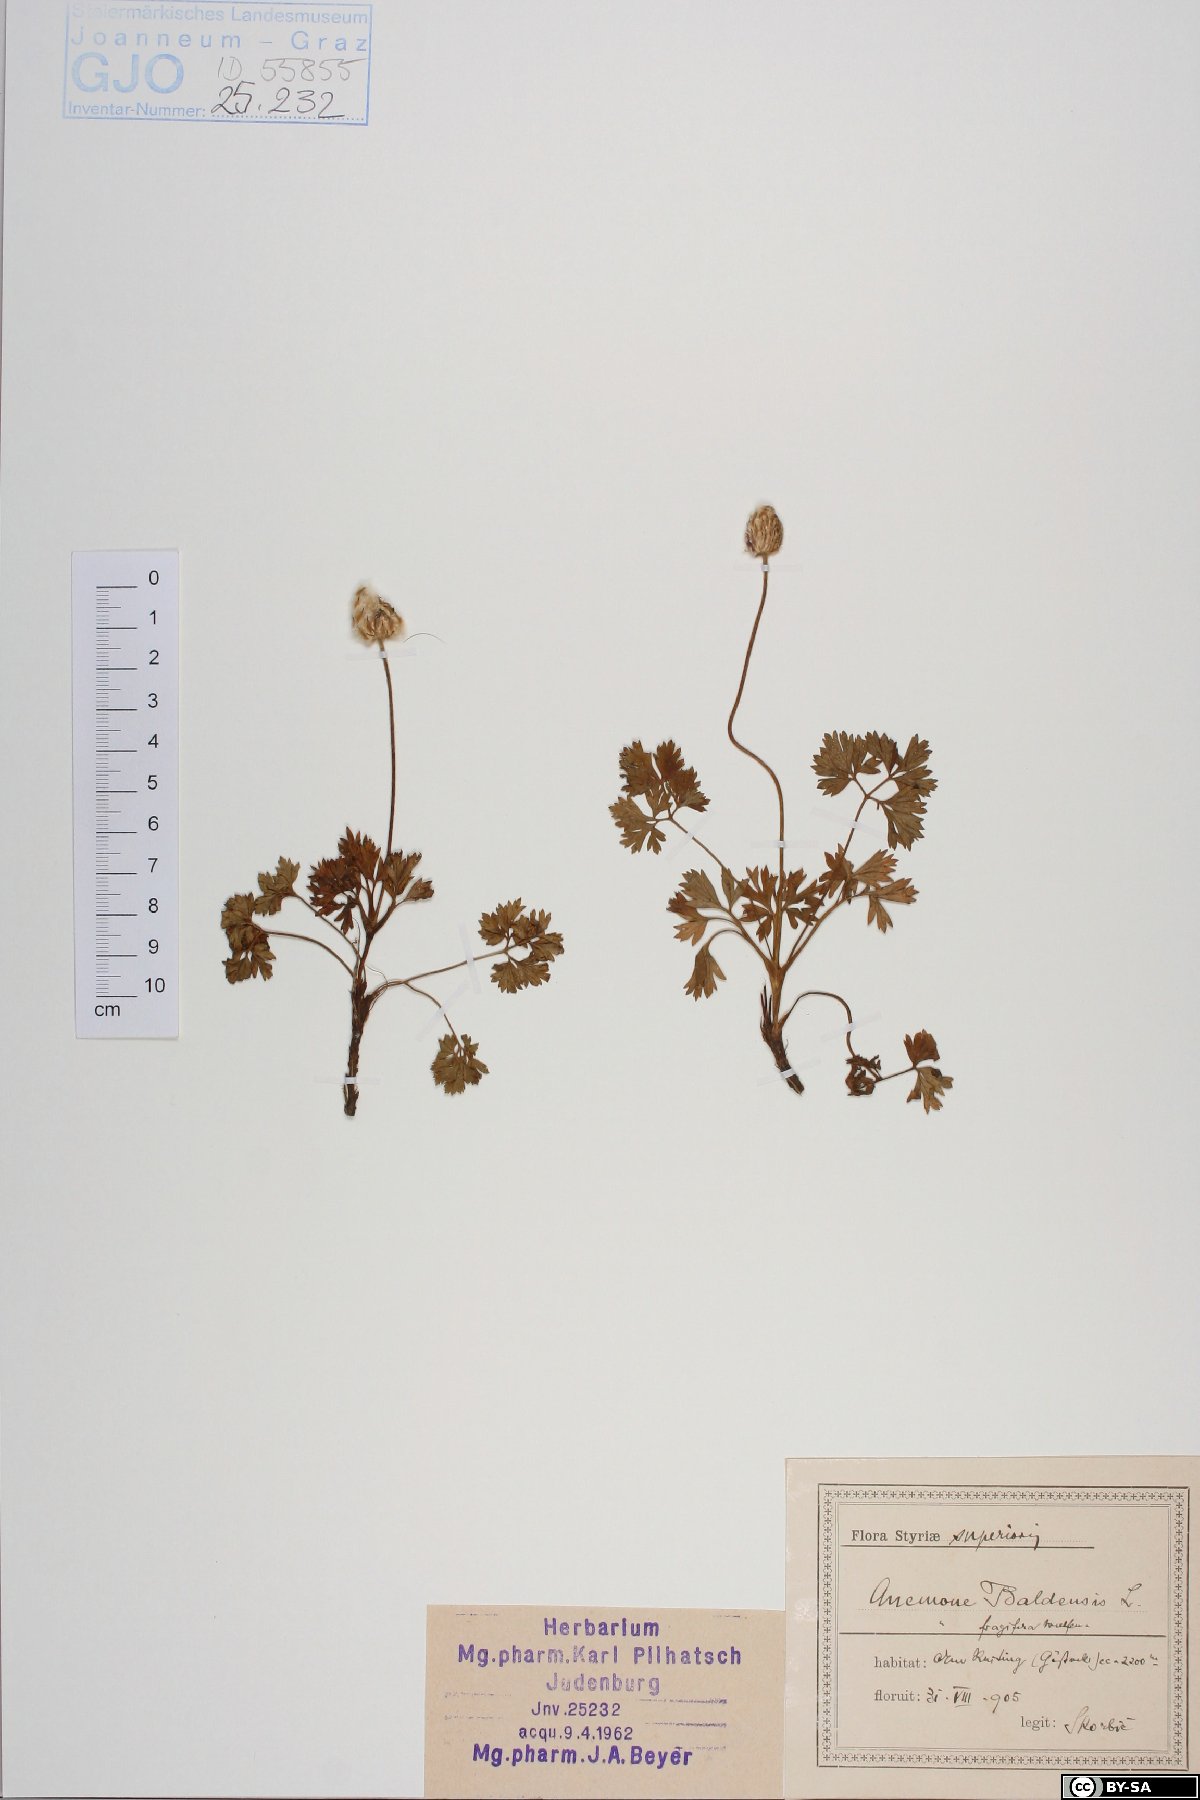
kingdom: Plantae
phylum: Tracheophyta
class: Magnoliopsida
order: Ranunculales
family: Ranunculaceae
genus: Anemone
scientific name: Anemone baldensis
